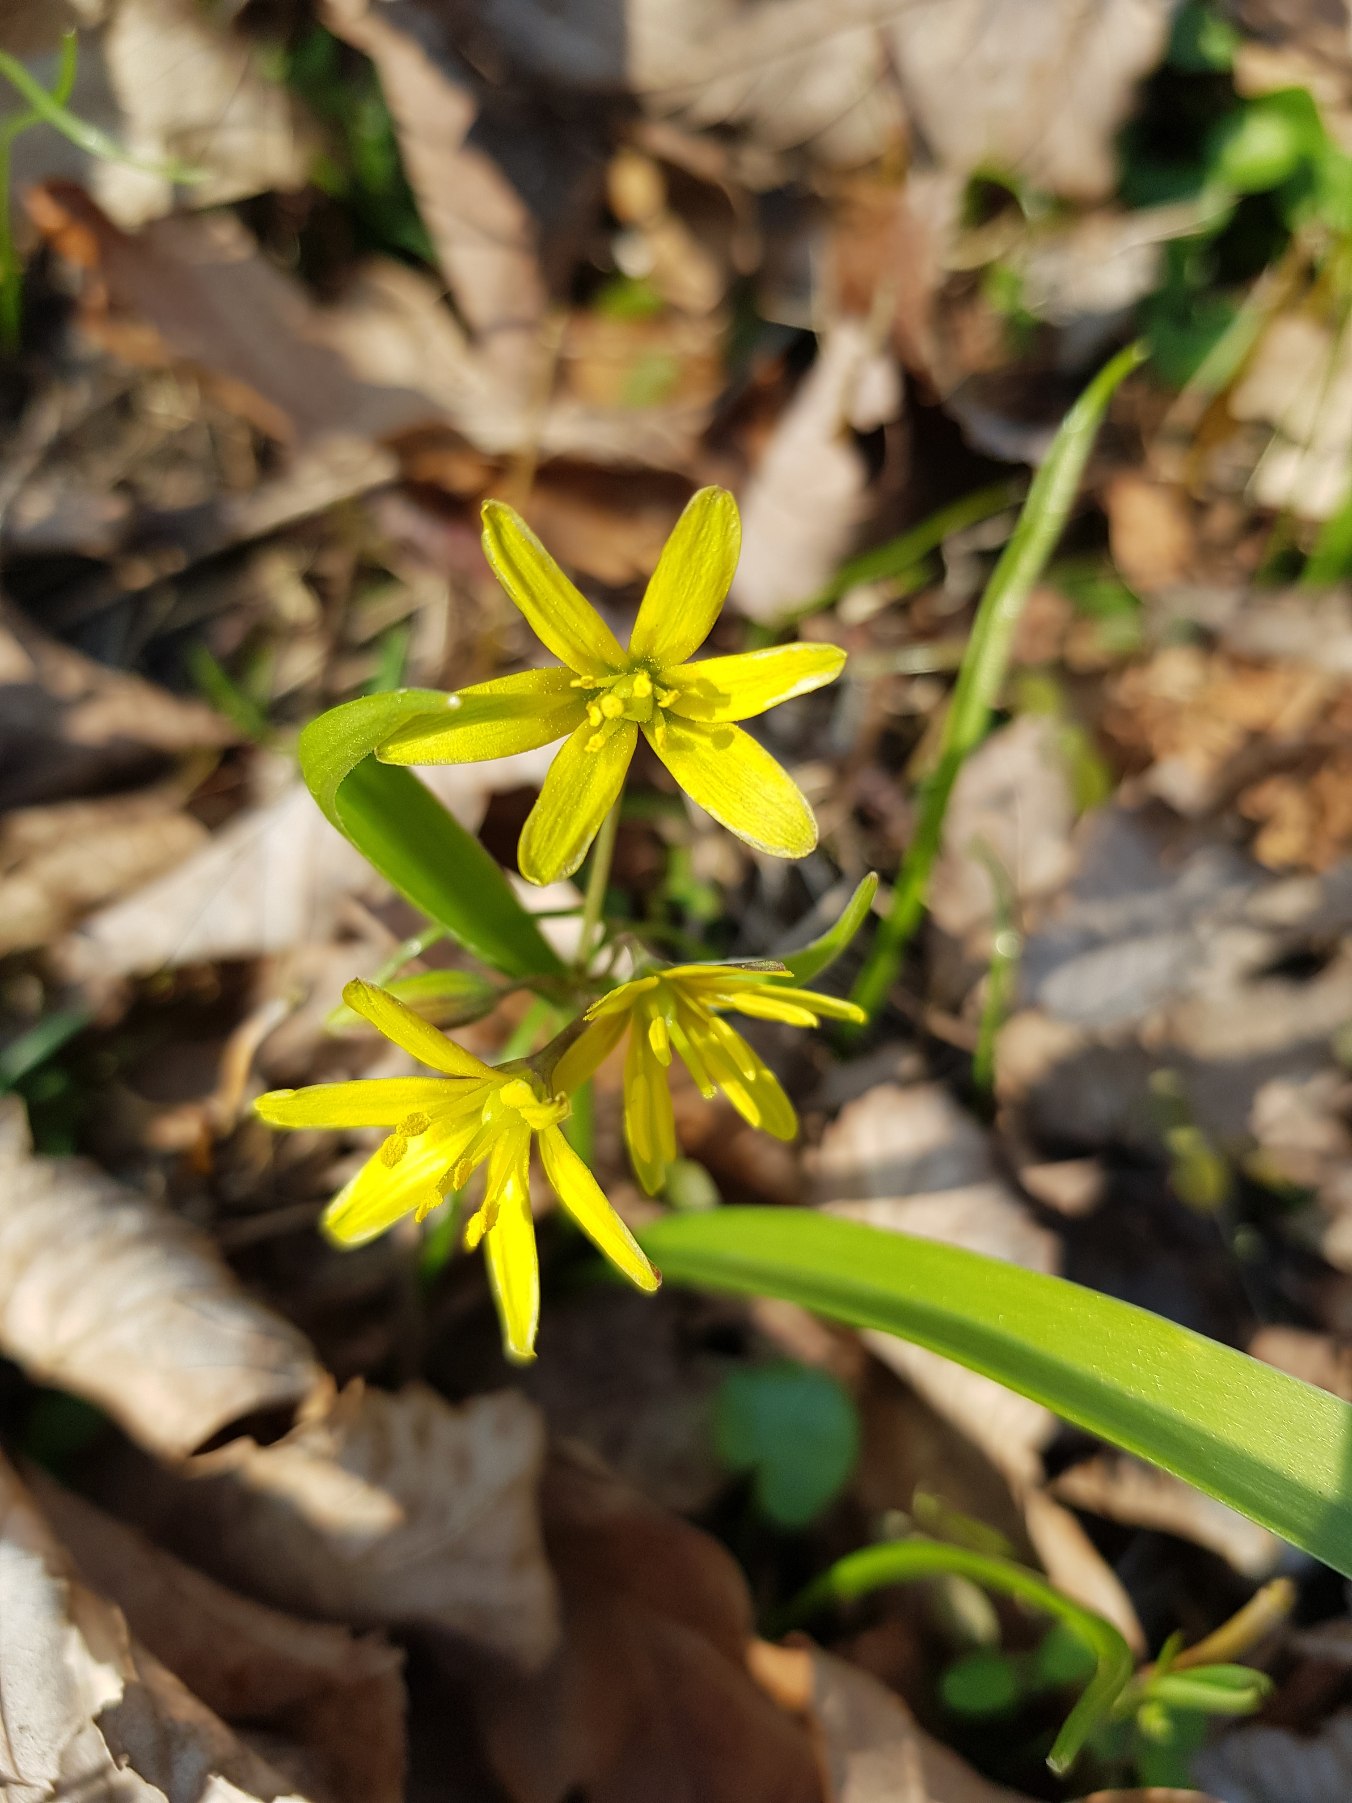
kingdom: Plantae
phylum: Tracheophyta
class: Liliopsida
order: Liliales
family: Liliaceae
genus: Gagea
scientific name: Gagea lutea
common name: Almindelig guldstjerne
